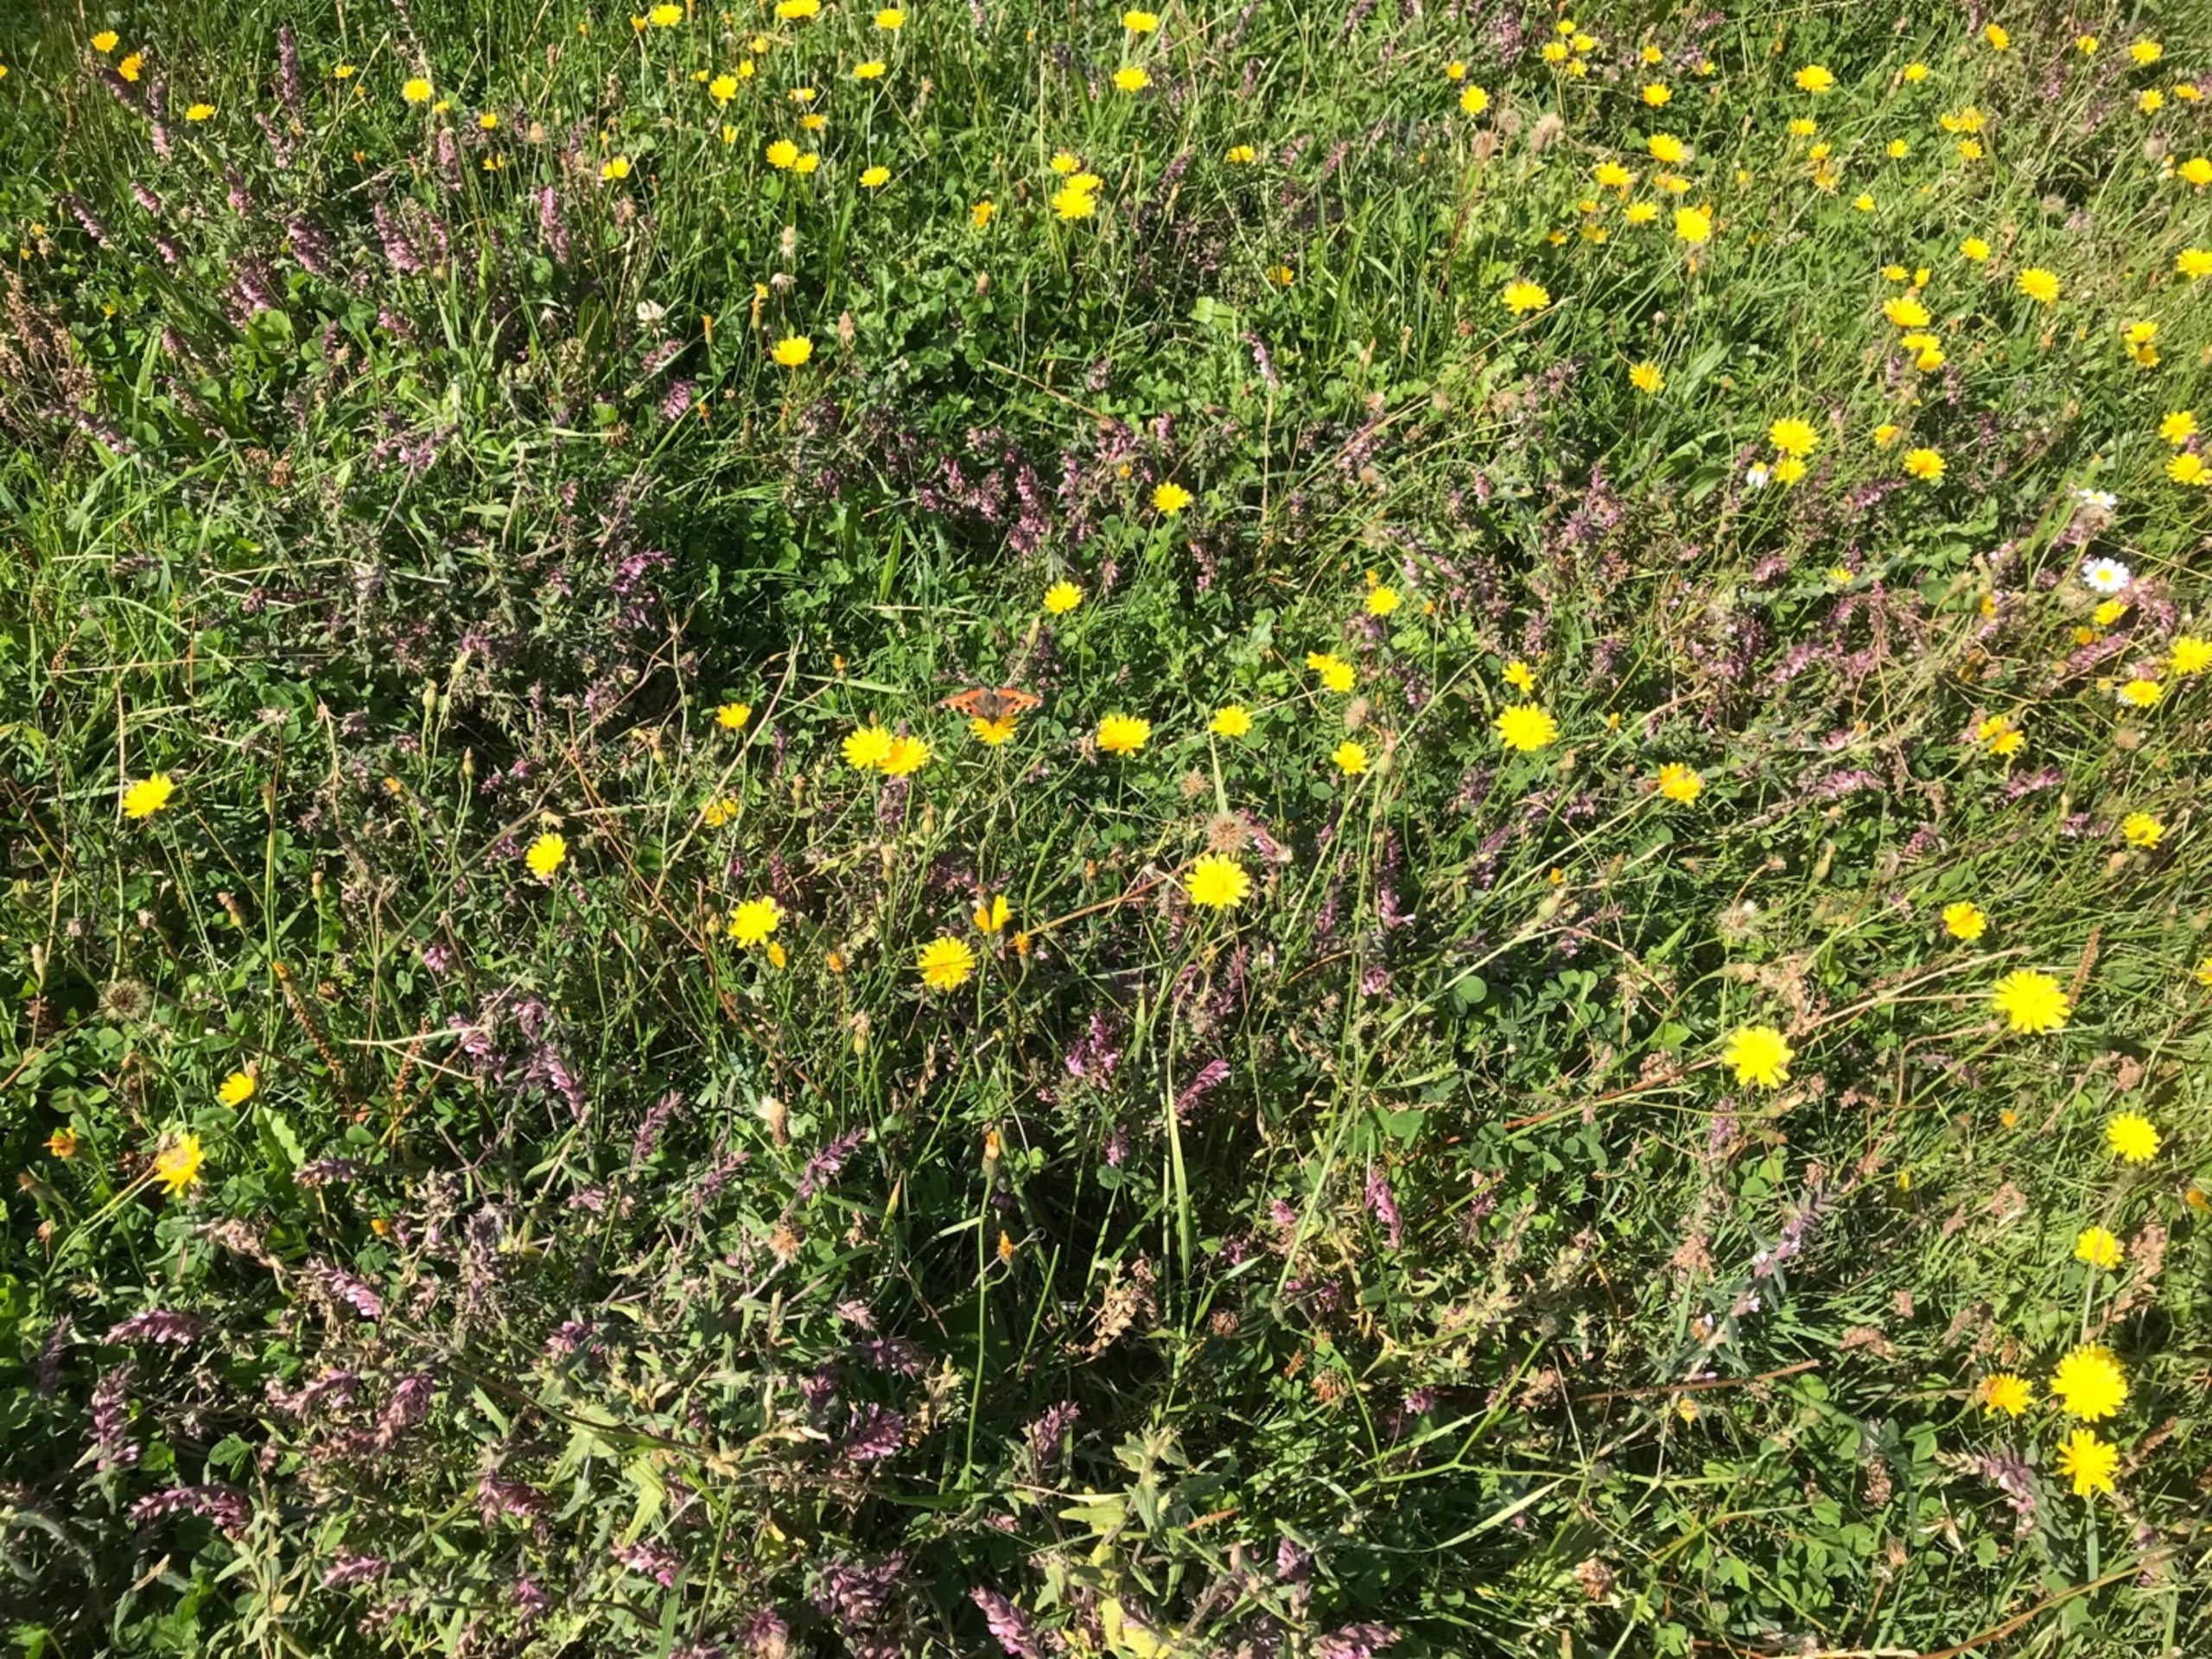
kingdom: Animalia
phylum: Arthropoda
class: Insecta
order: Lepidoptera
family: Nymphalidae
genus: Aglais
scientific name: Aglais urticae
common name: Nældens takvinge
